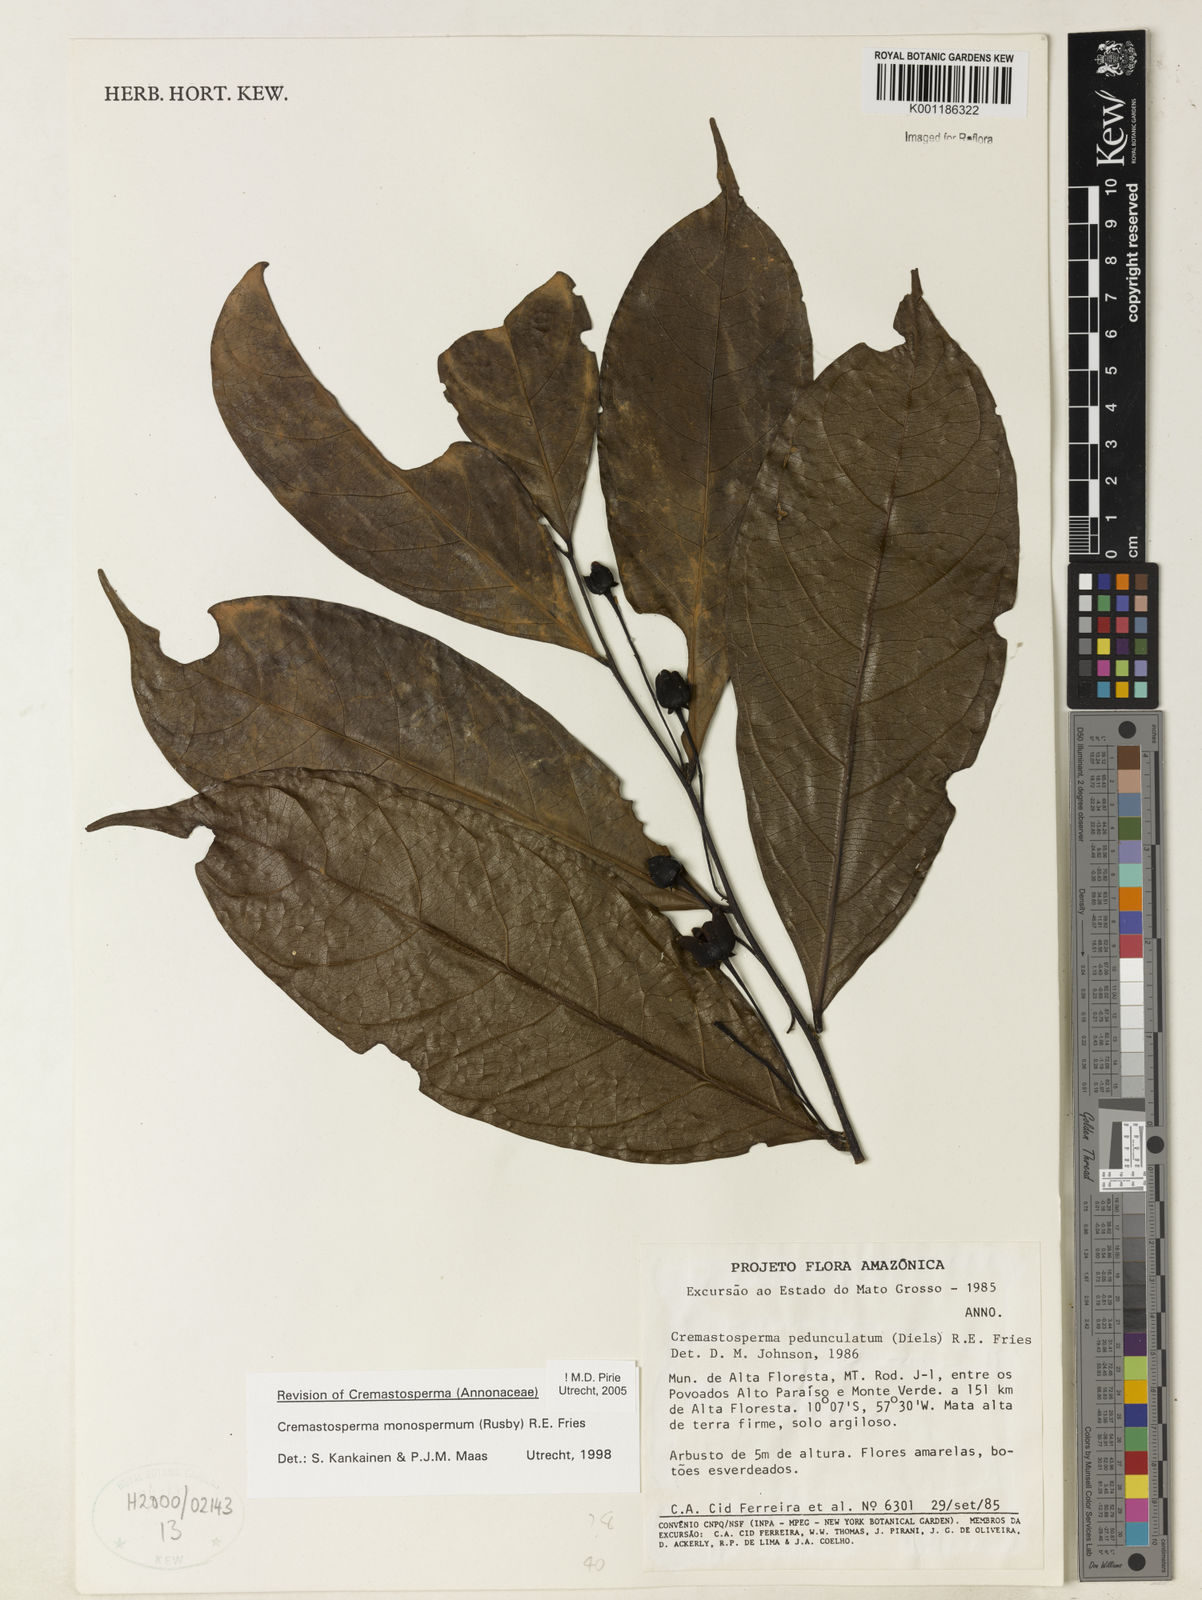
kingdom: Plantae
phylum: Tracheophyta
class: Magnoliopsida
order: Magnoliales
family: Annonaceae
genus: Cremastosperma
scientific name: Cremastosperma monospermum
